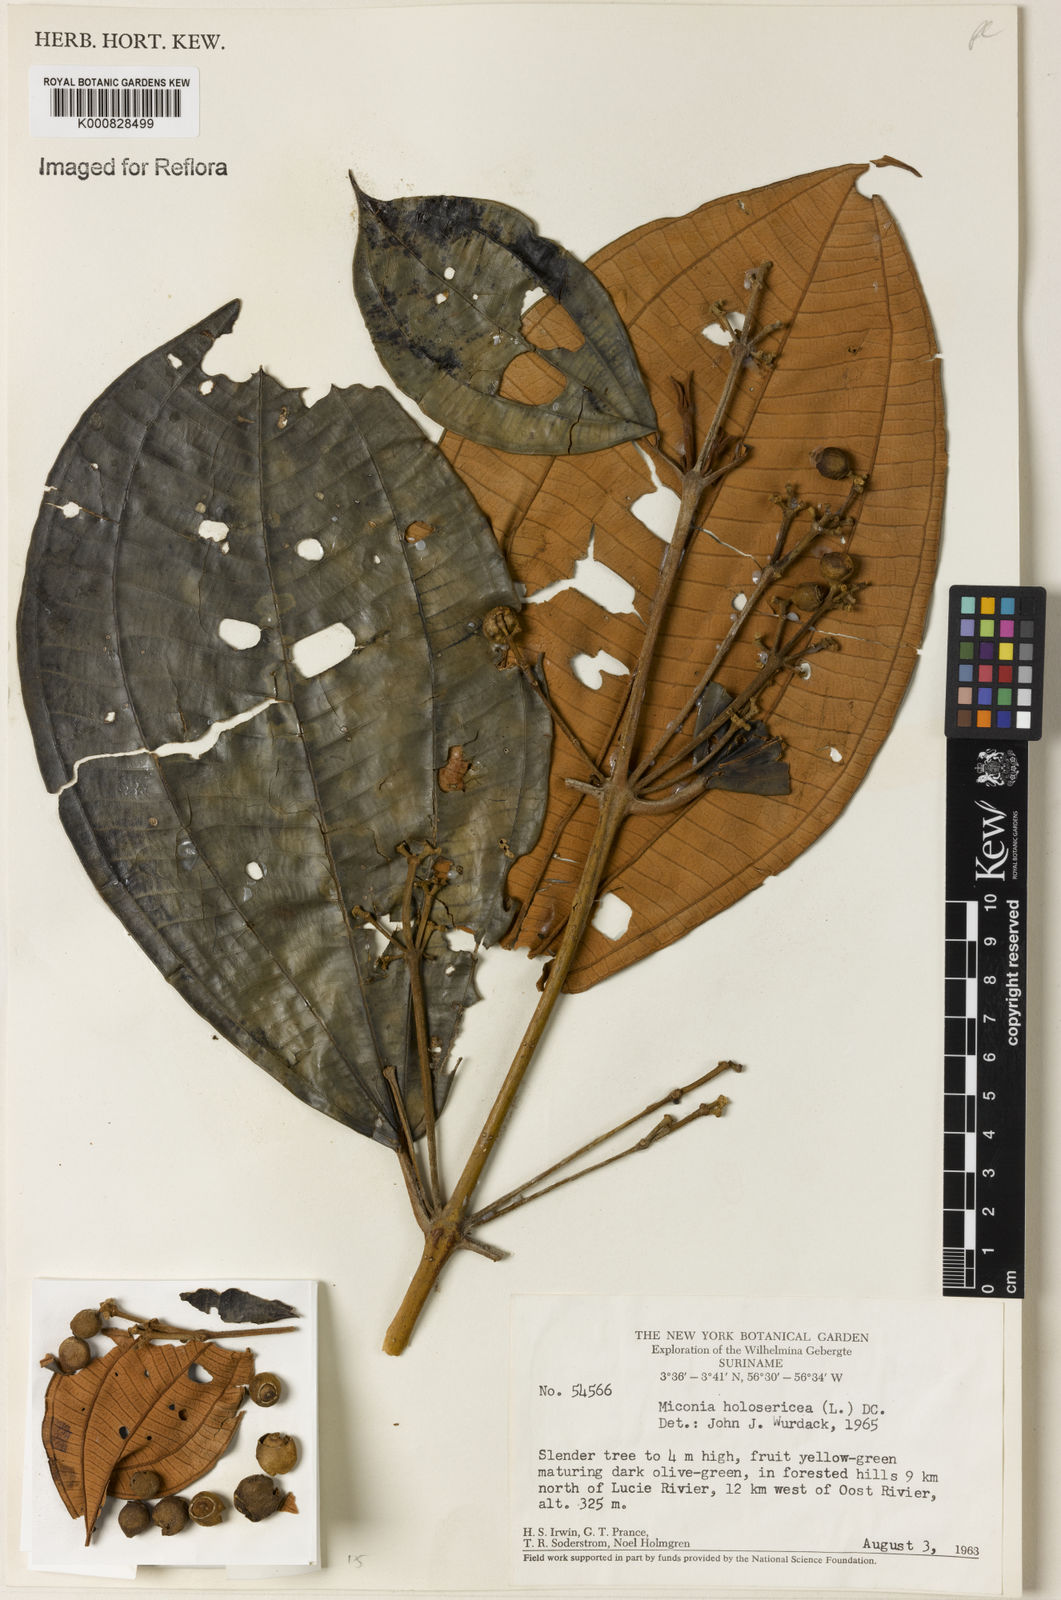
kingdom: Plantae
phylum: Tracheophyta
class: Magnoliopsida
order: Myrtales
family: Melastomataceae
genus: Miconia
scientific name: Miconia serrulata
